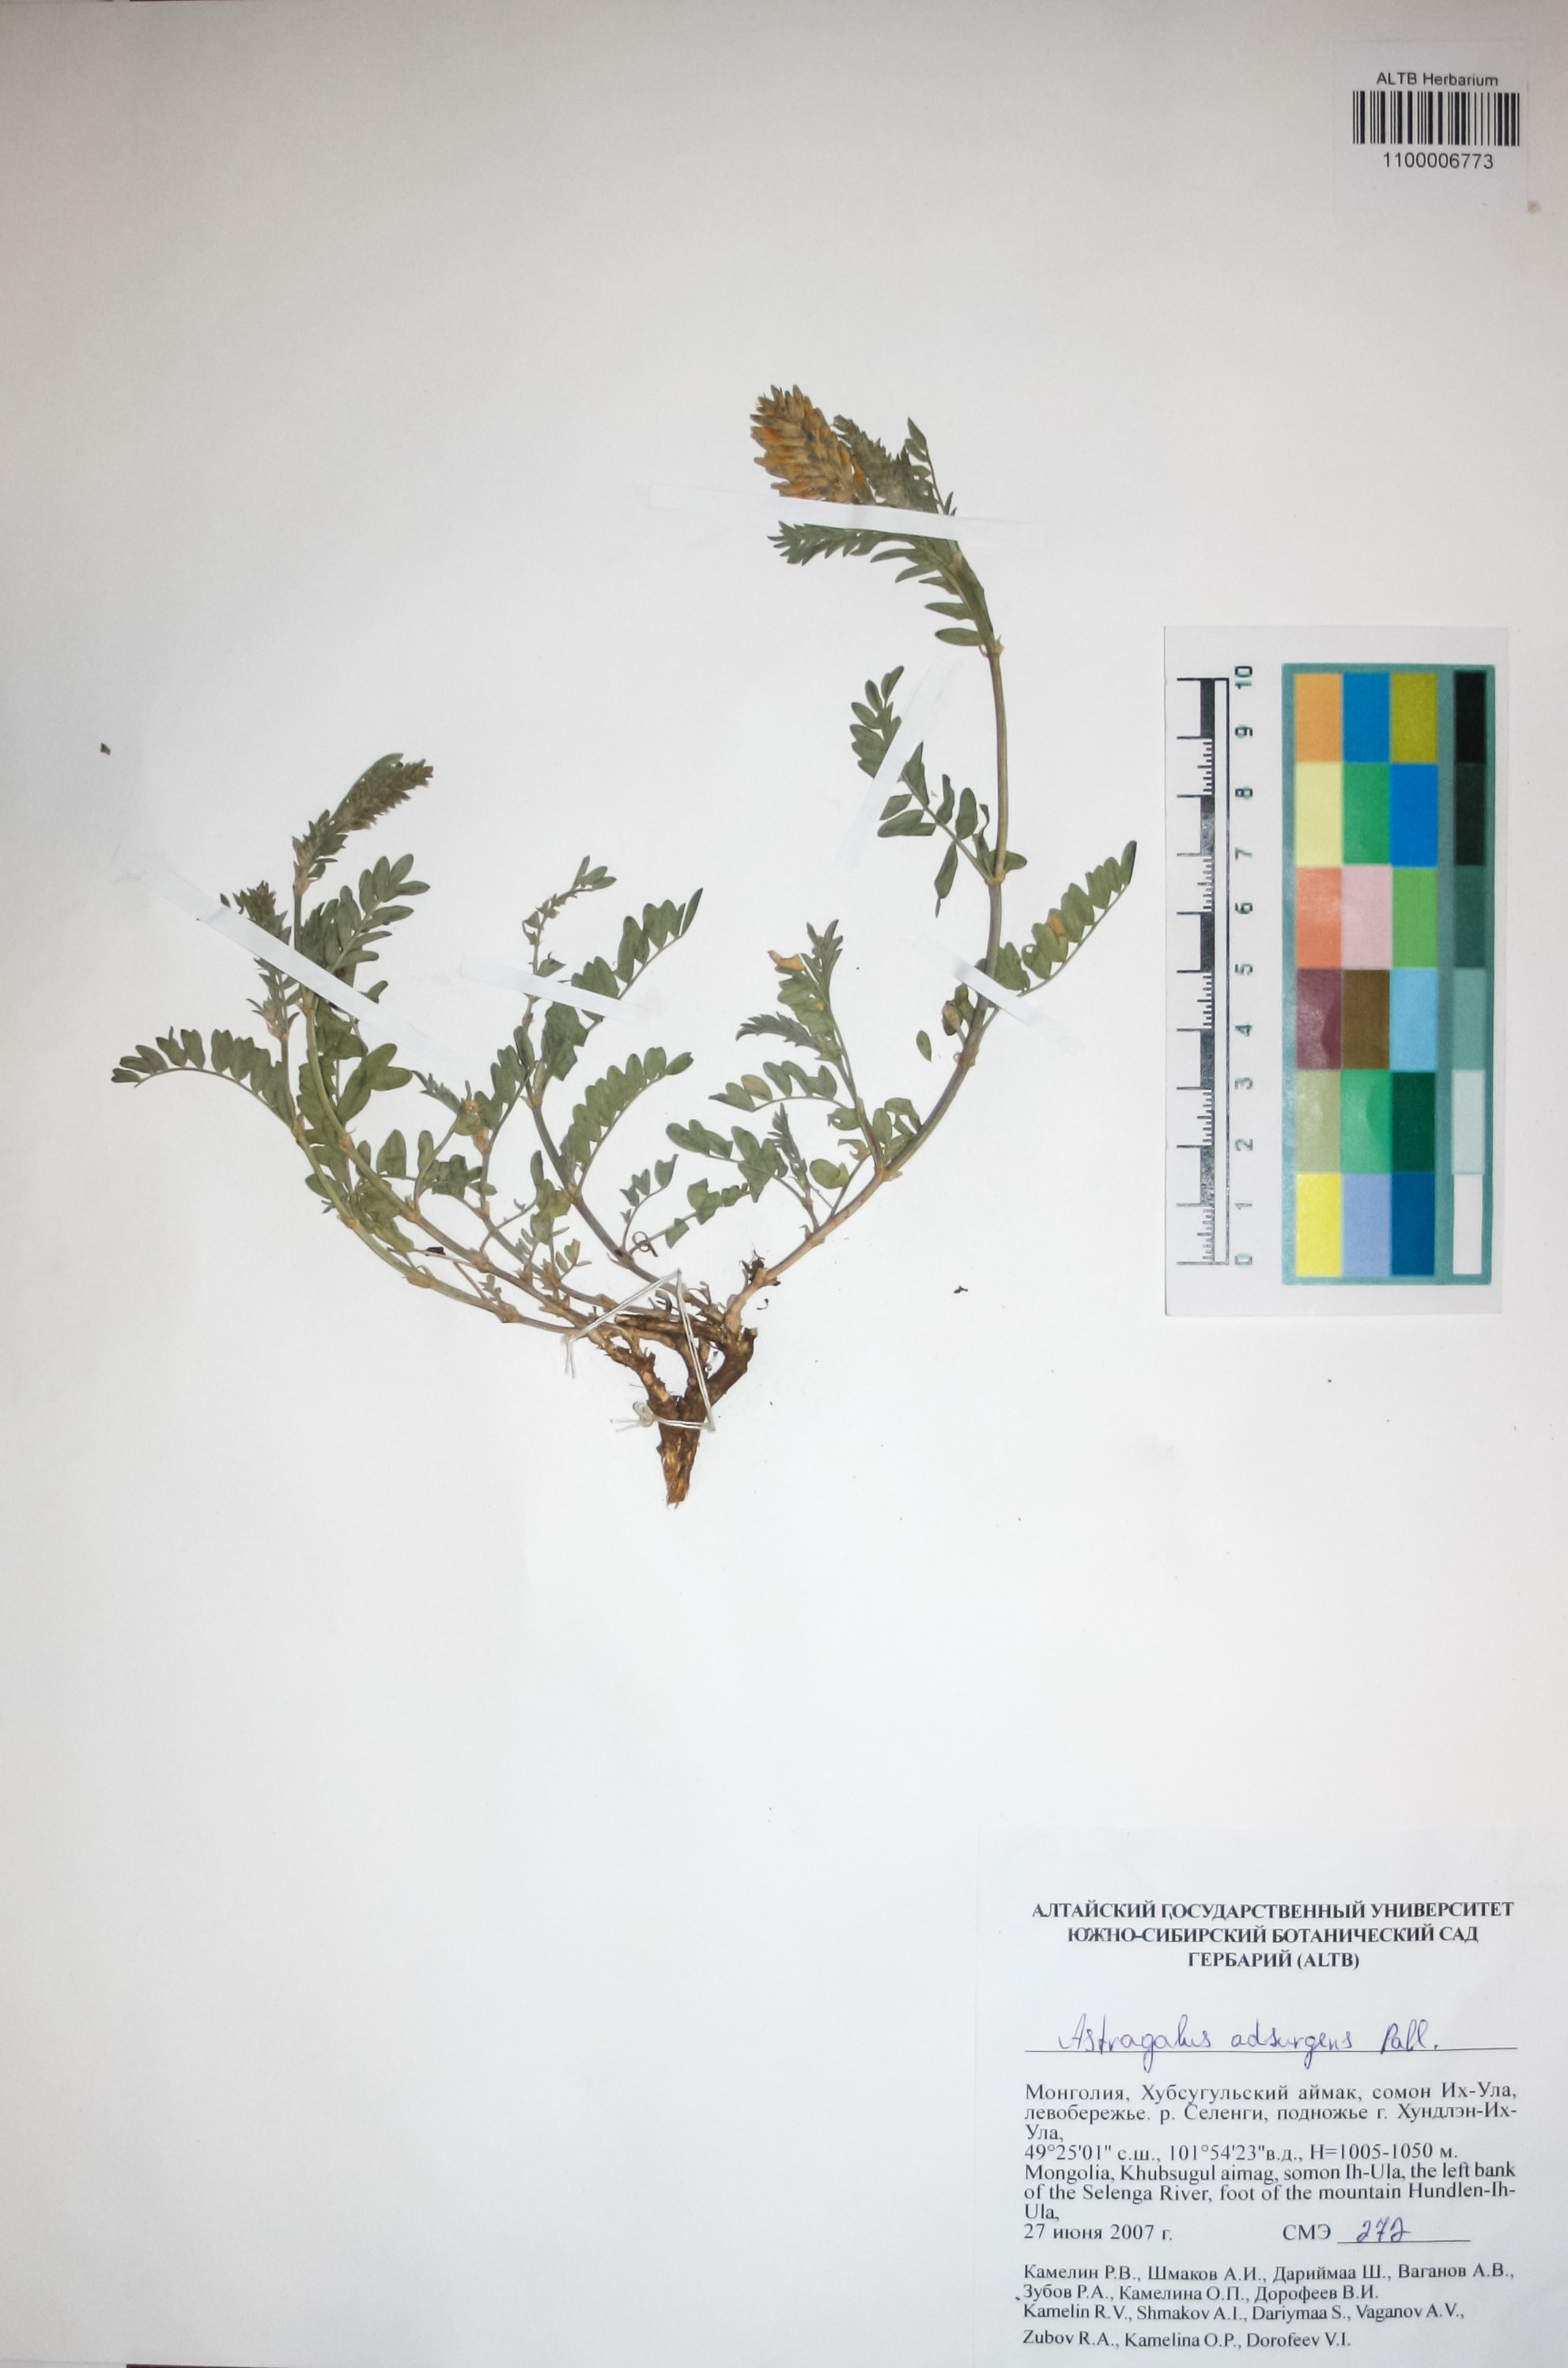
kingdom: Plantae
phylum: Tracheophyta
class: Magnoliopsida
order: Fabales
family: Fabaceae
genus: Astragalus
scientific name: Astragalus laxmannii
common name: Laxmann's milk-vetch
